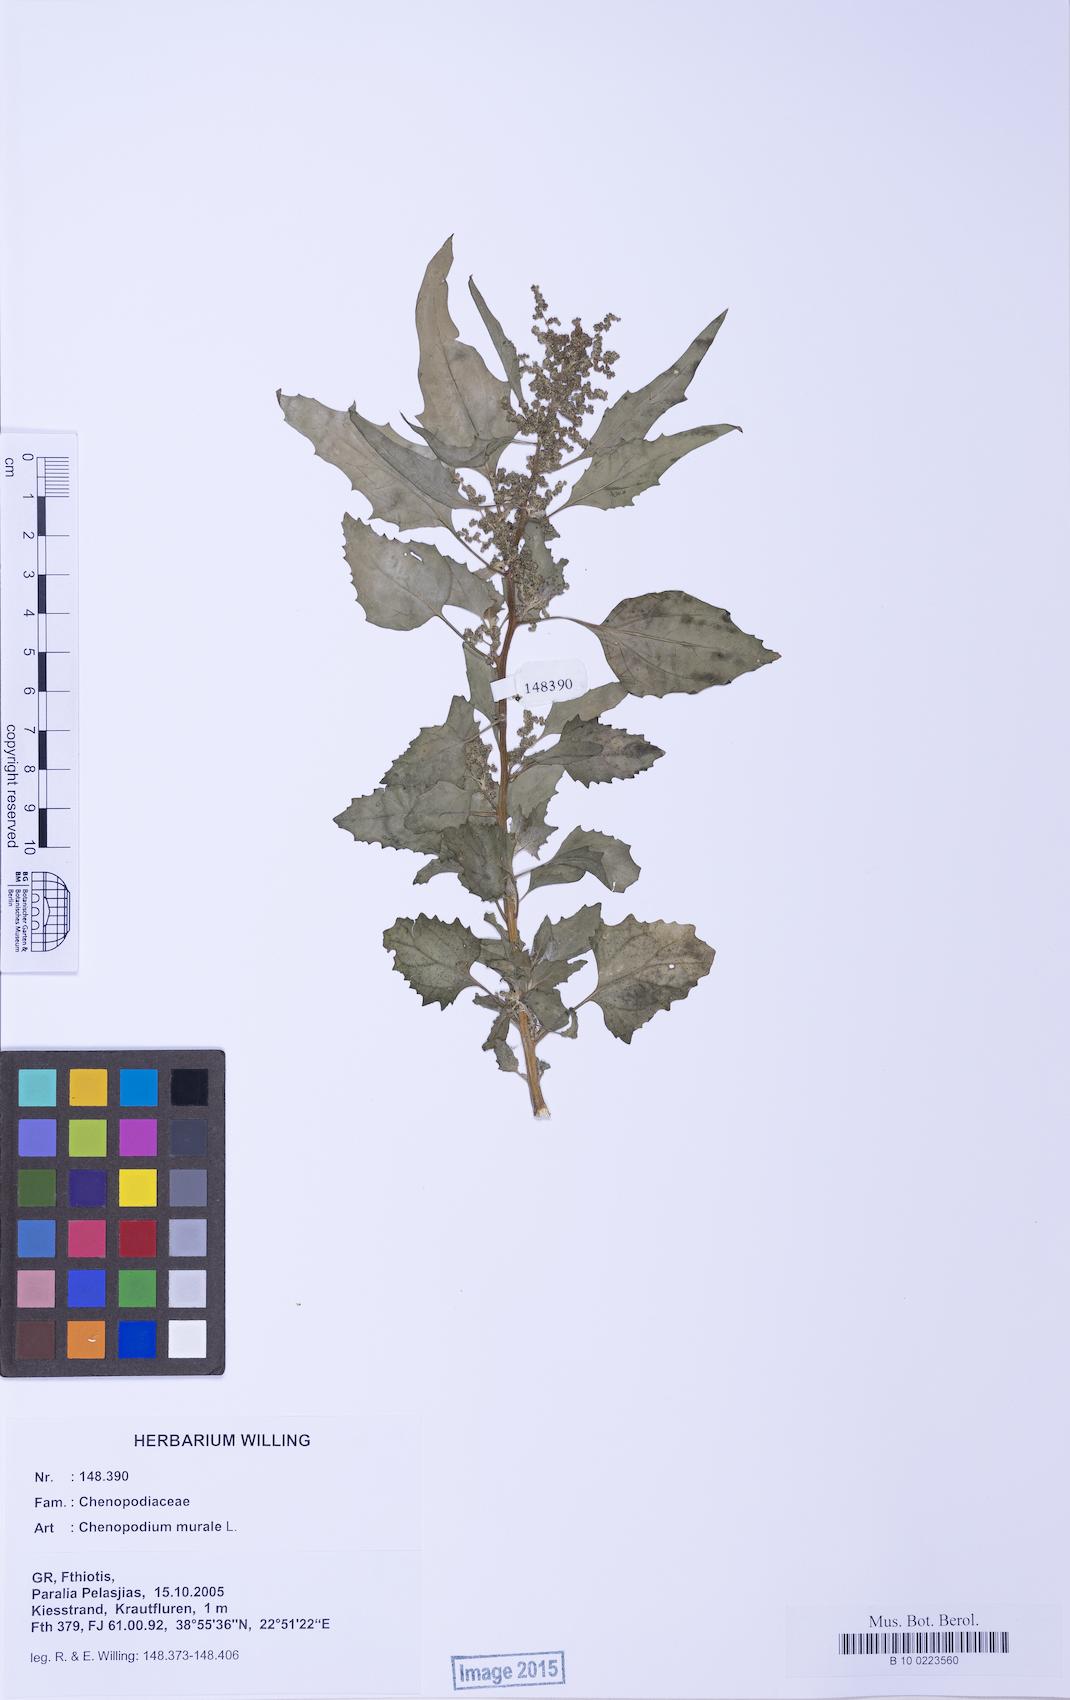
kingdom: Plantae
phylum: Tracheophyta
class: Magnoliopsida
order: Caryophyllales
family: Amaranthaceae
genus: Chenopodiastrum
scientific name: Chenopodiastrum murale
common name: Sowbane
